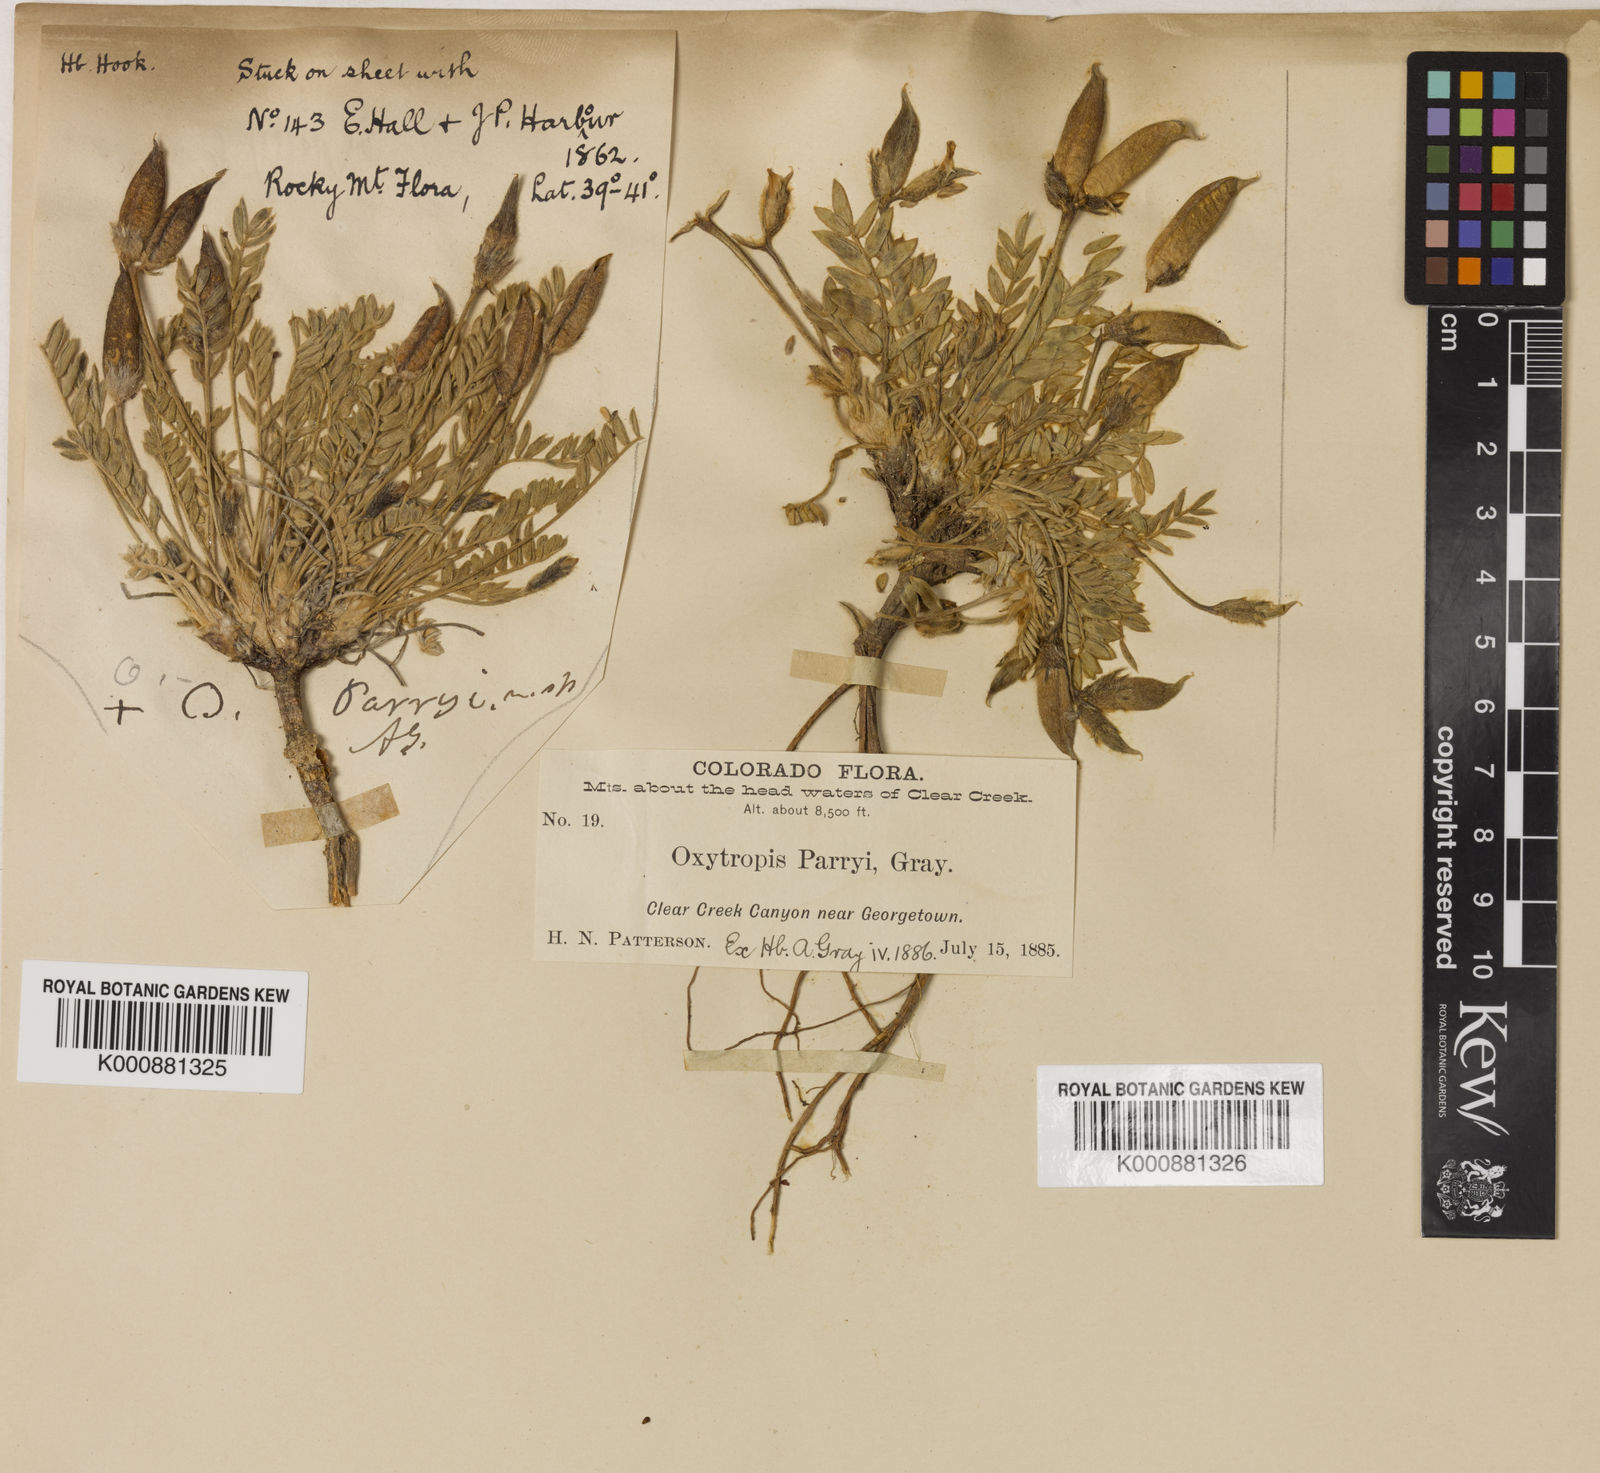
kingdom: Plantae
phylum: Tracheophyta
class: Magnoliopsida
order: Fabales
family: Fabaceae
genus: Oxytropis
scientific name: Oxytropis parryi
